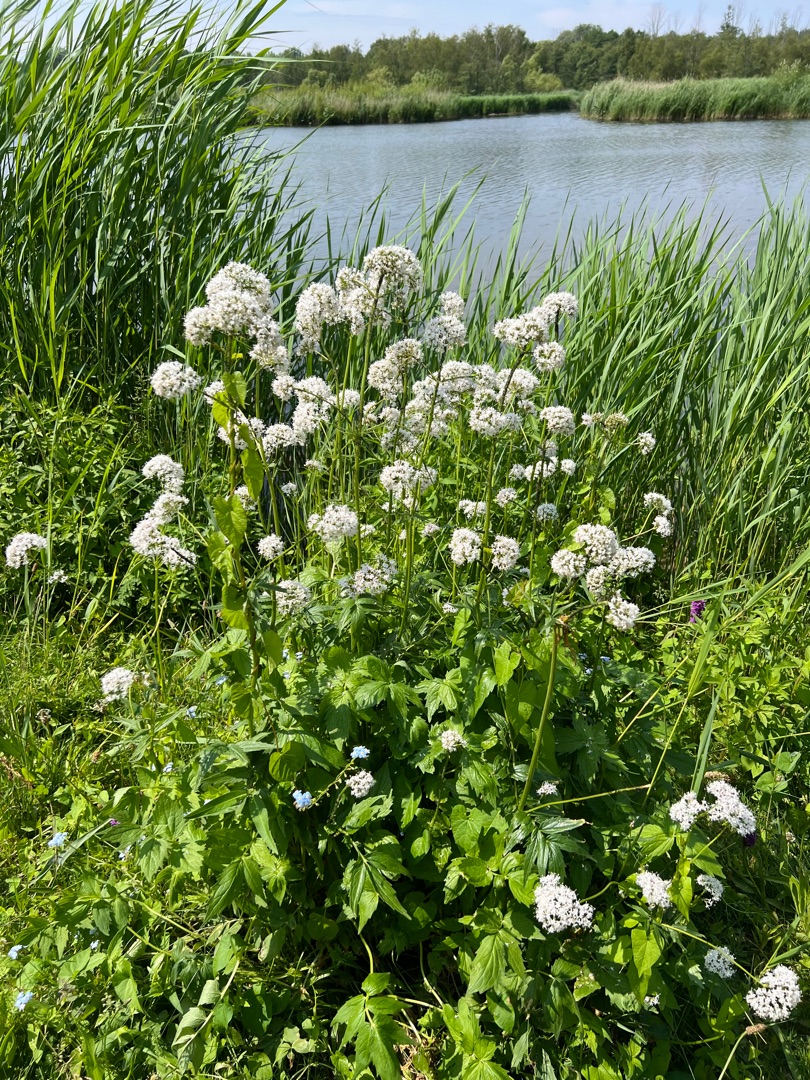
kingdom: Plantae
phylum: Tracheophyta
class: Magnoliopsida
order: Dipsacales
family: Caprifoliaceae
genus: Valeriana
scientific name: Valeriana sambucifolia
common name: Hyldebladet baldrian
